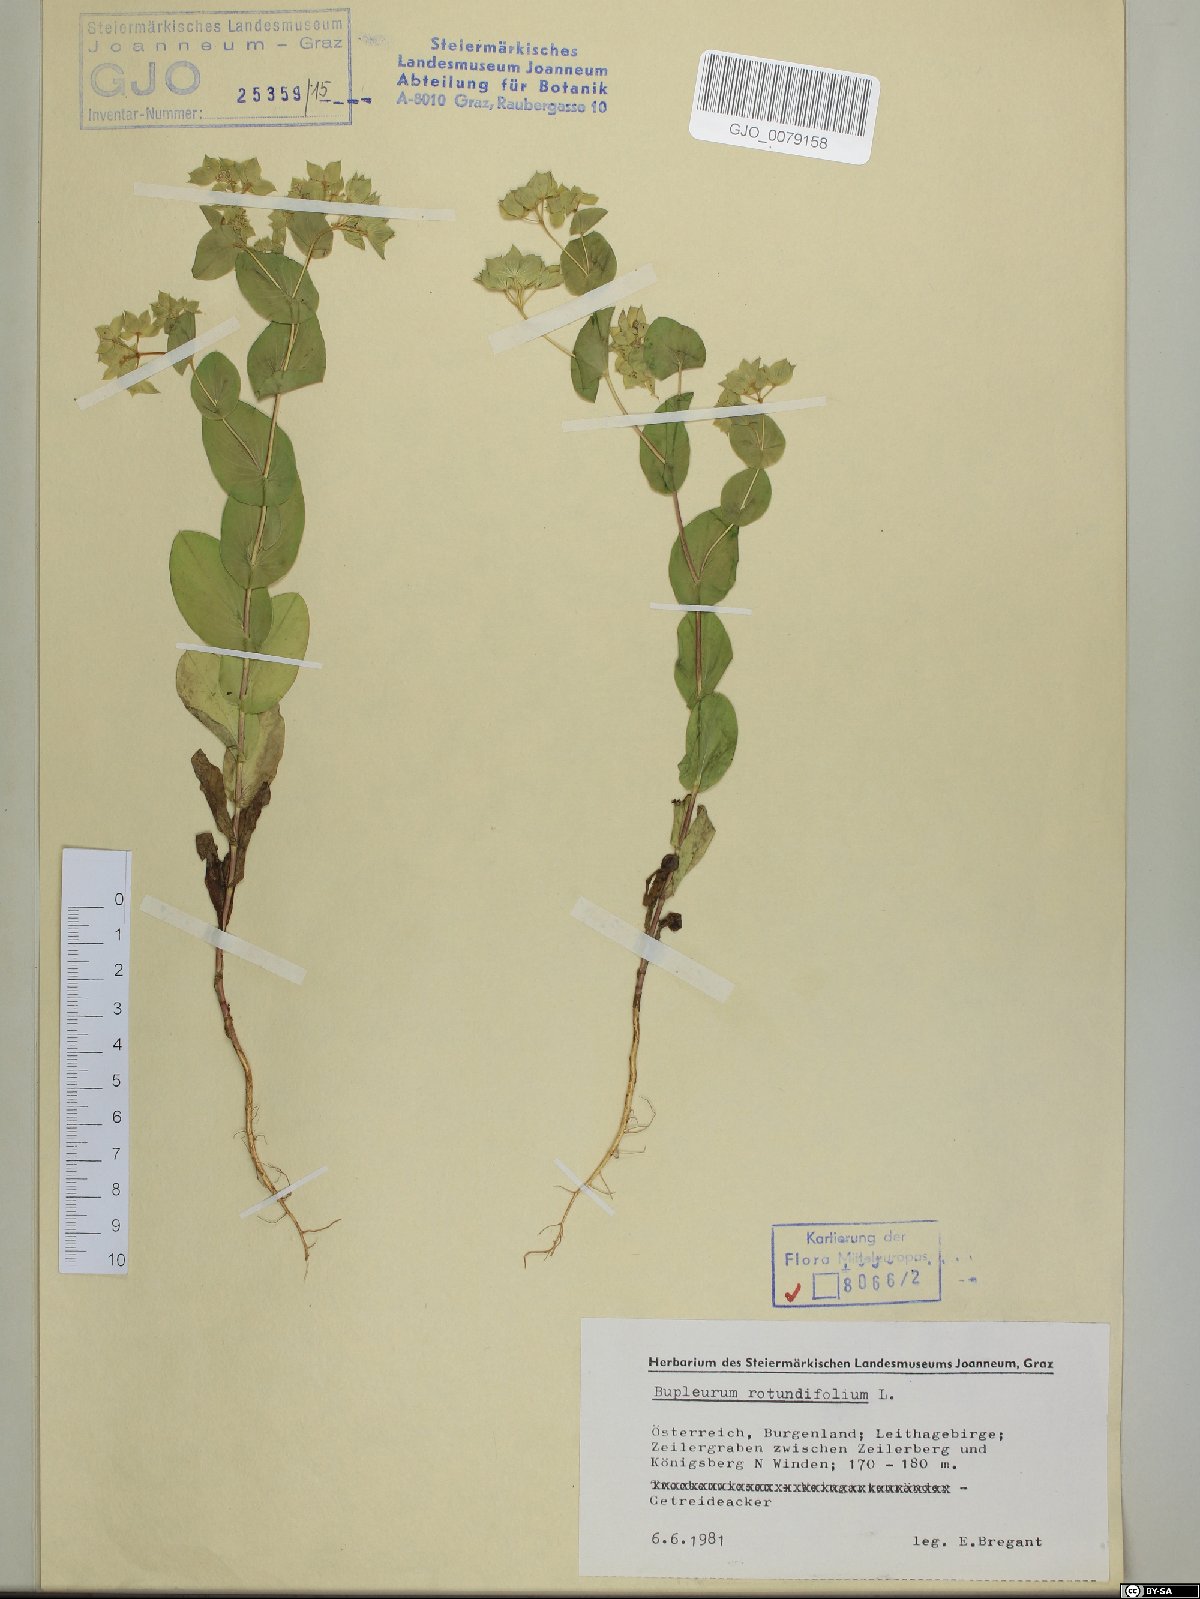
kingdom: Plantae
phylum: Tracheophyta
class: Magnoliopsida
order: Apiales
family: Apiaceae
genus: Bupleurum
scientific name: Bupleurum rotundifolium
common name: Thorow-wax
